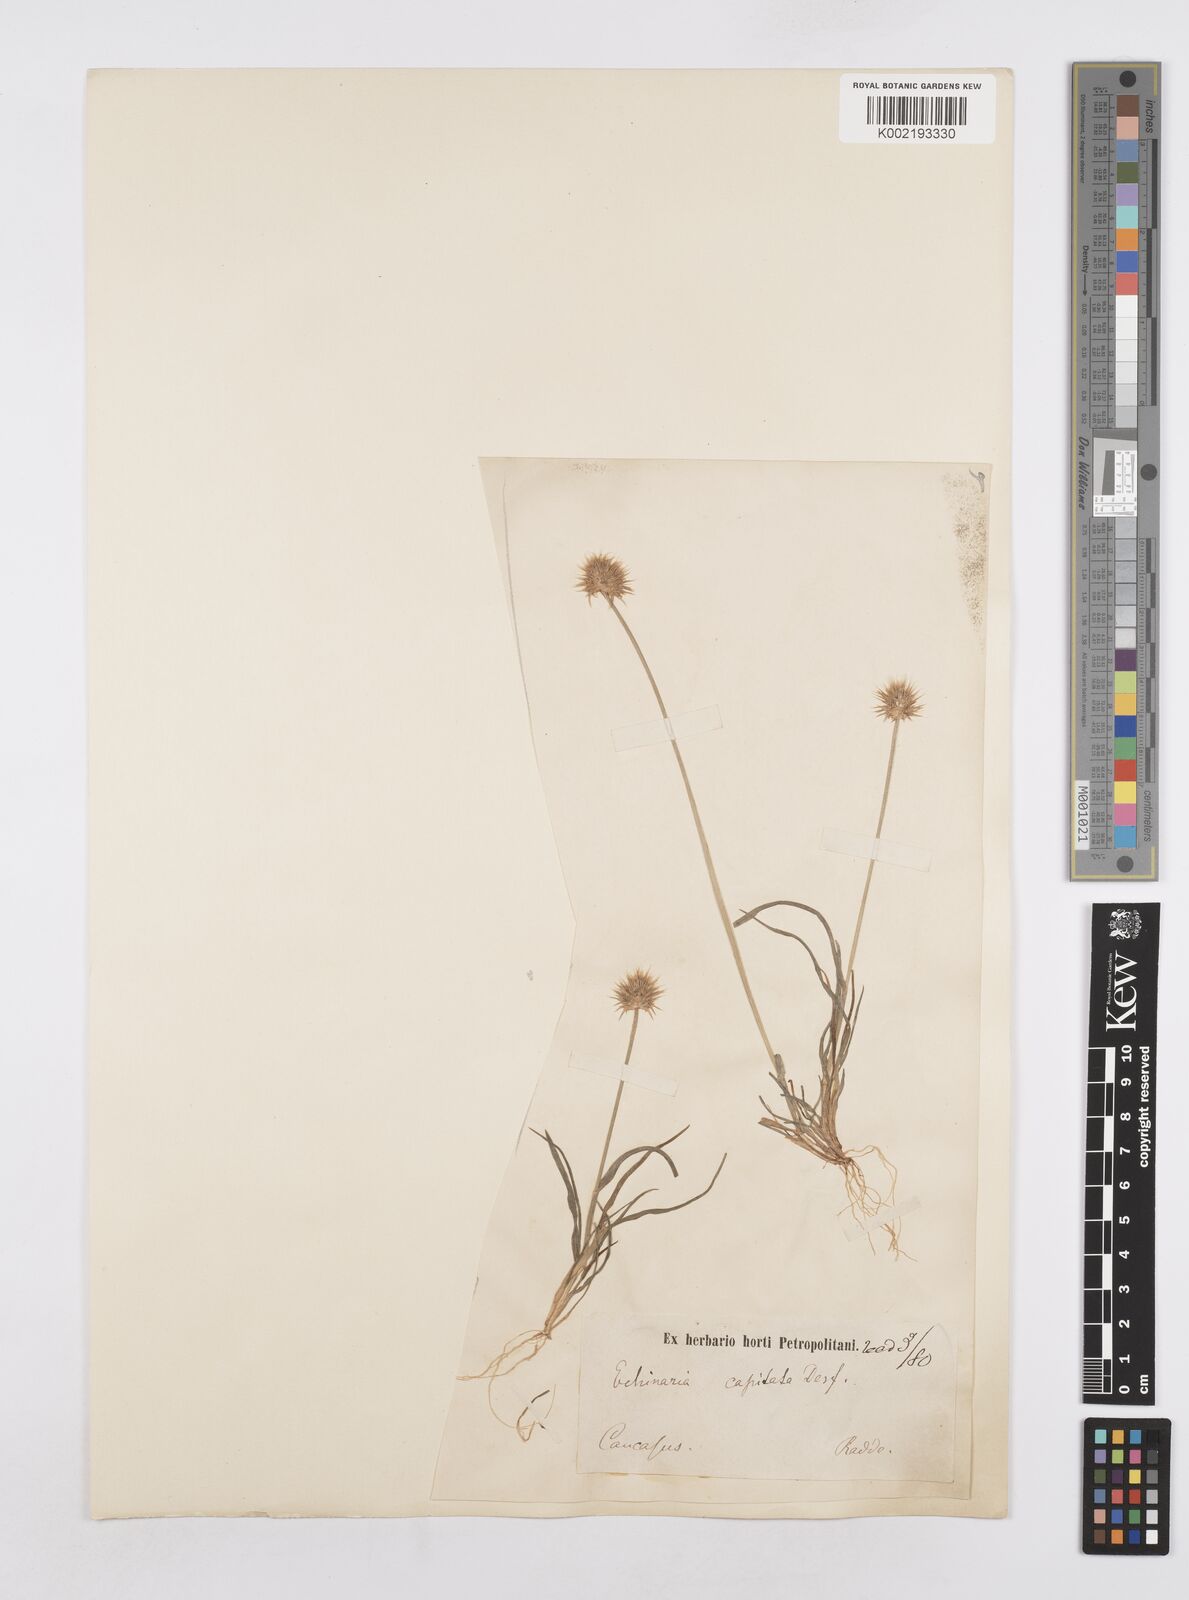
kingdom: Plantae
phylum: Tracheophyta
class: Liliopsida
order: Poales
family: Poaceae
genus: Echinaria
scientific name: Echinaria capitata
